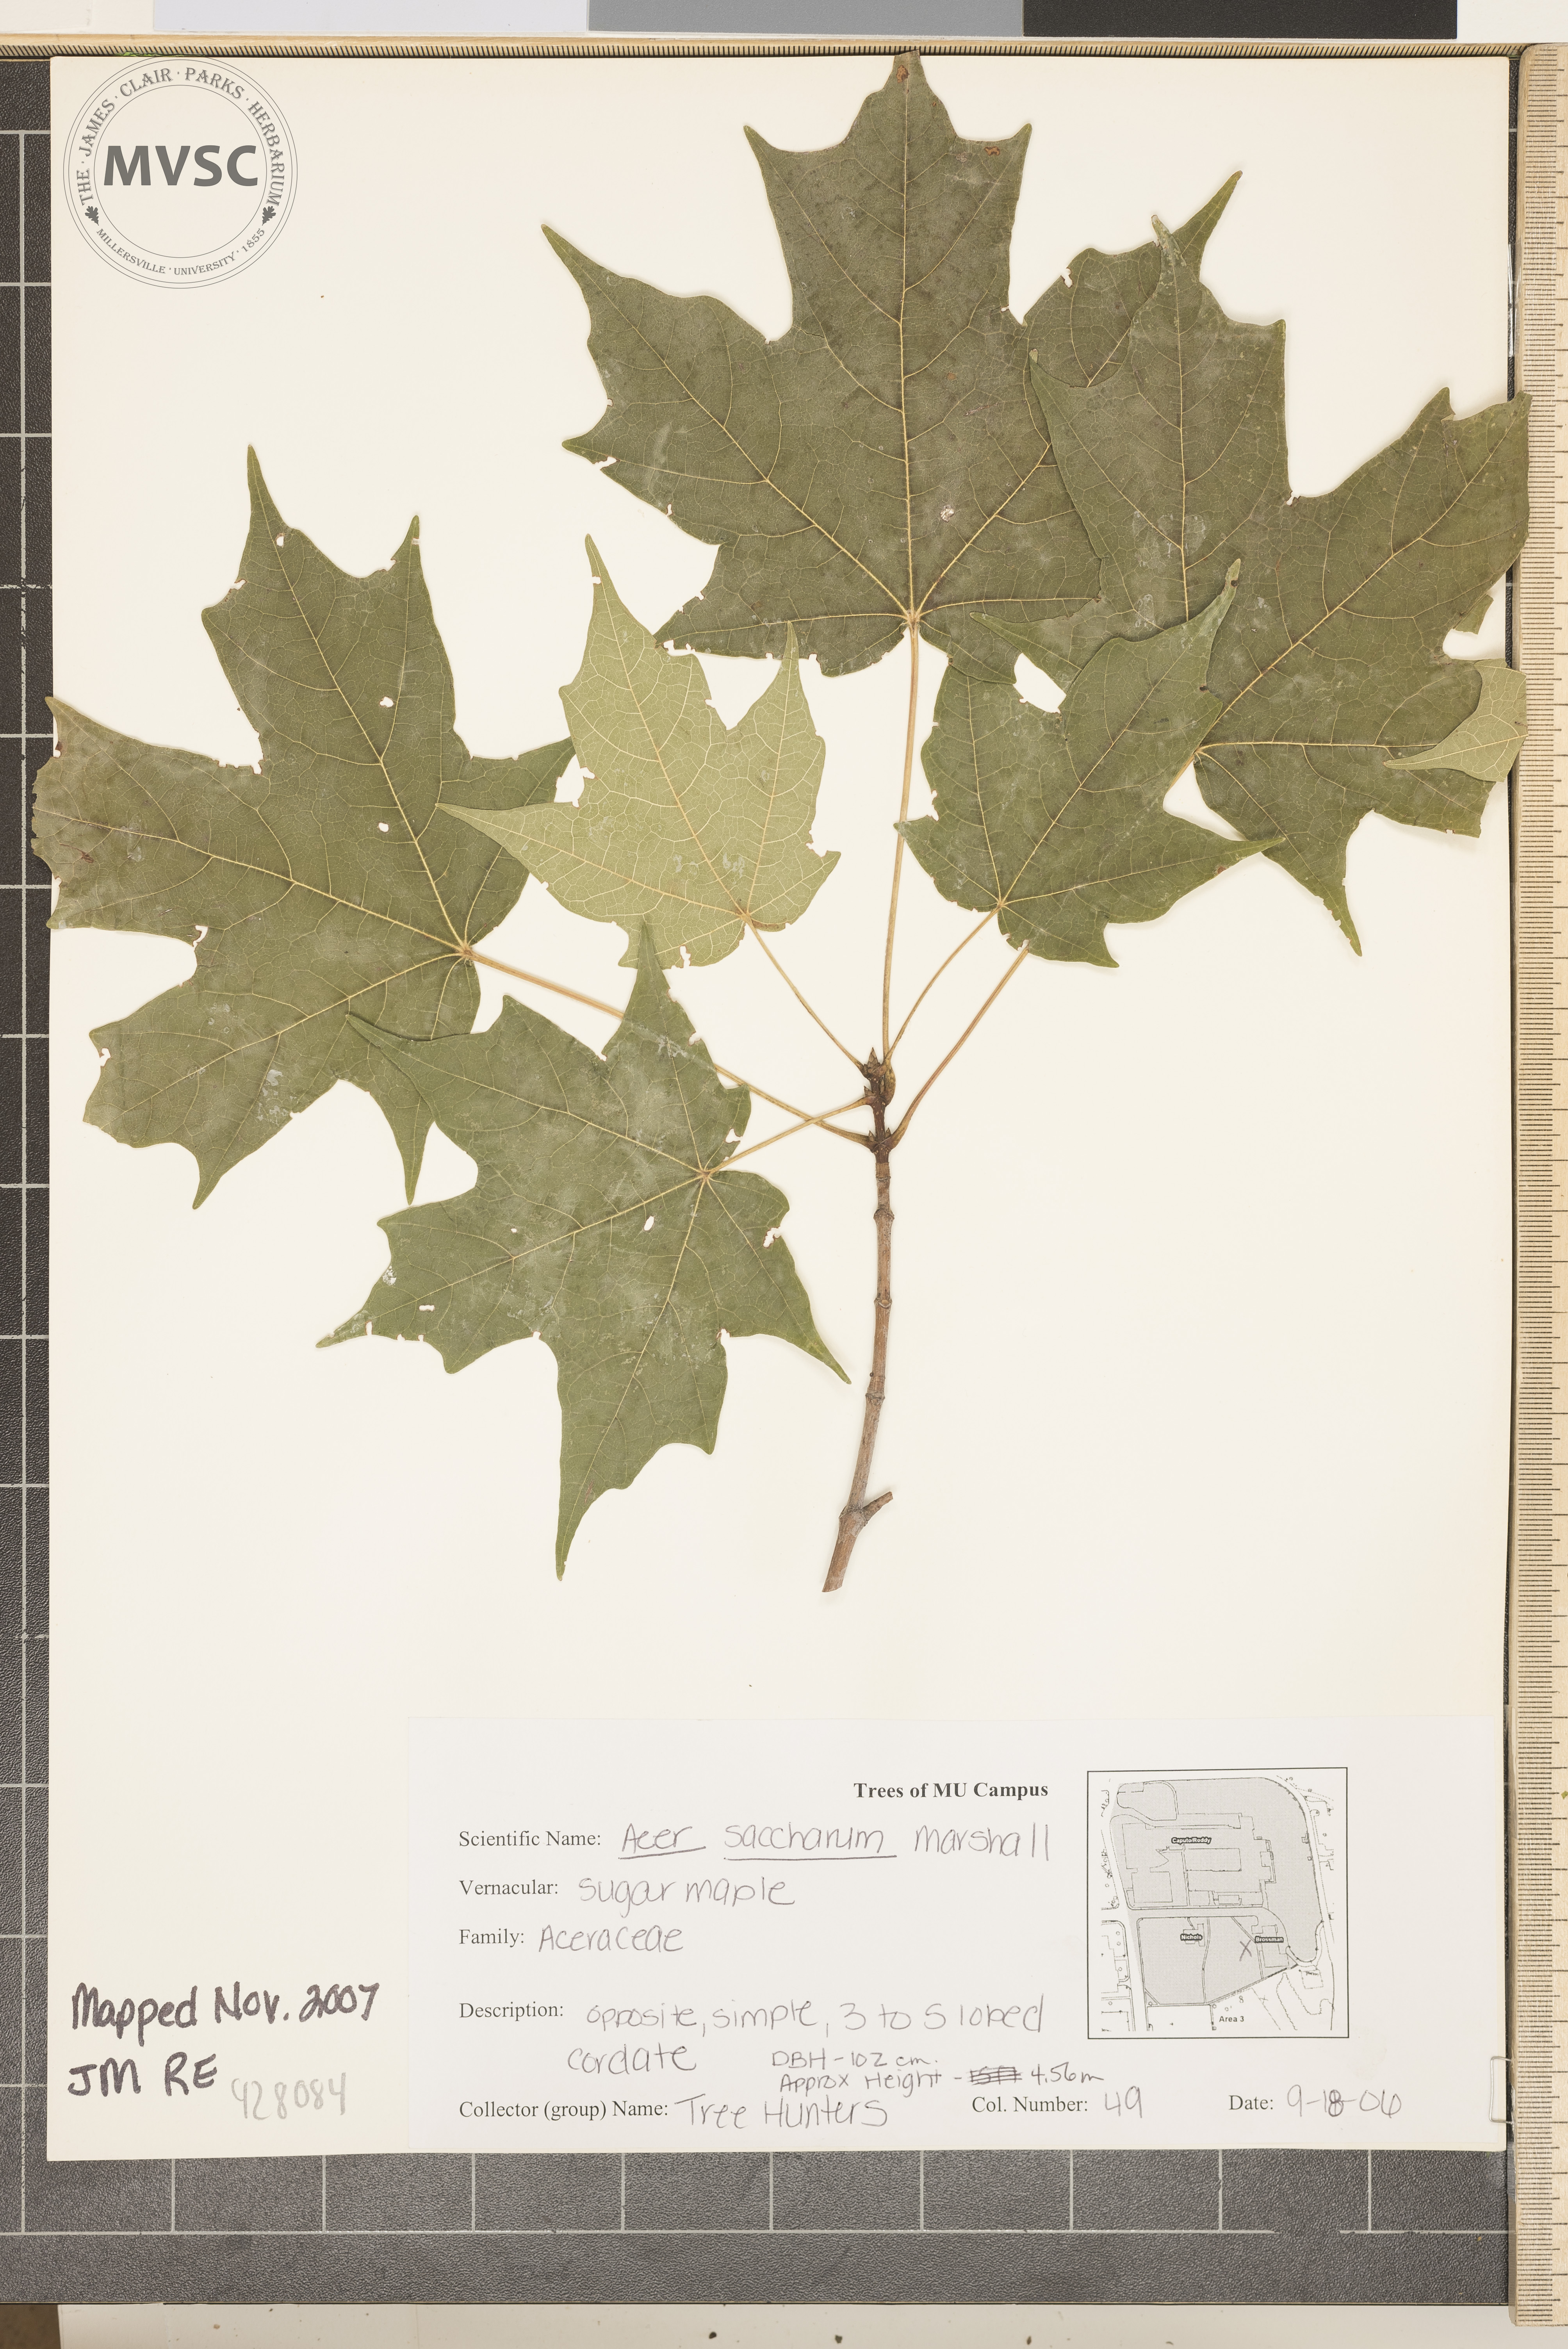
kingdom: Plantae
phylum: Tracheophyta
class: Magnoliopsida
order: Sapindales
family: Sapindaceae
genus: Acer
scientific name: Acer saccharum
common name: Sugar Maple
